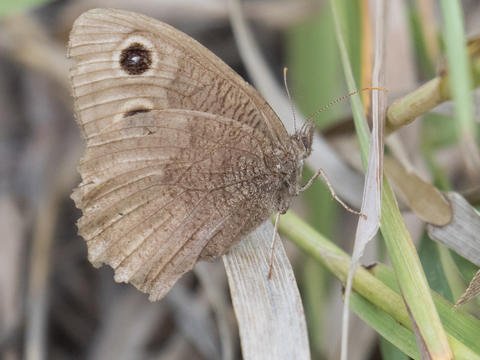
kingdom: Animalia
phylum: Arthropoda
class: Insecta
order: Lepidoptera
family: Nymphalidae
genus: Cercyonis
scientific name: Cercyonis pegala
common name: Common Wood-Nymph
